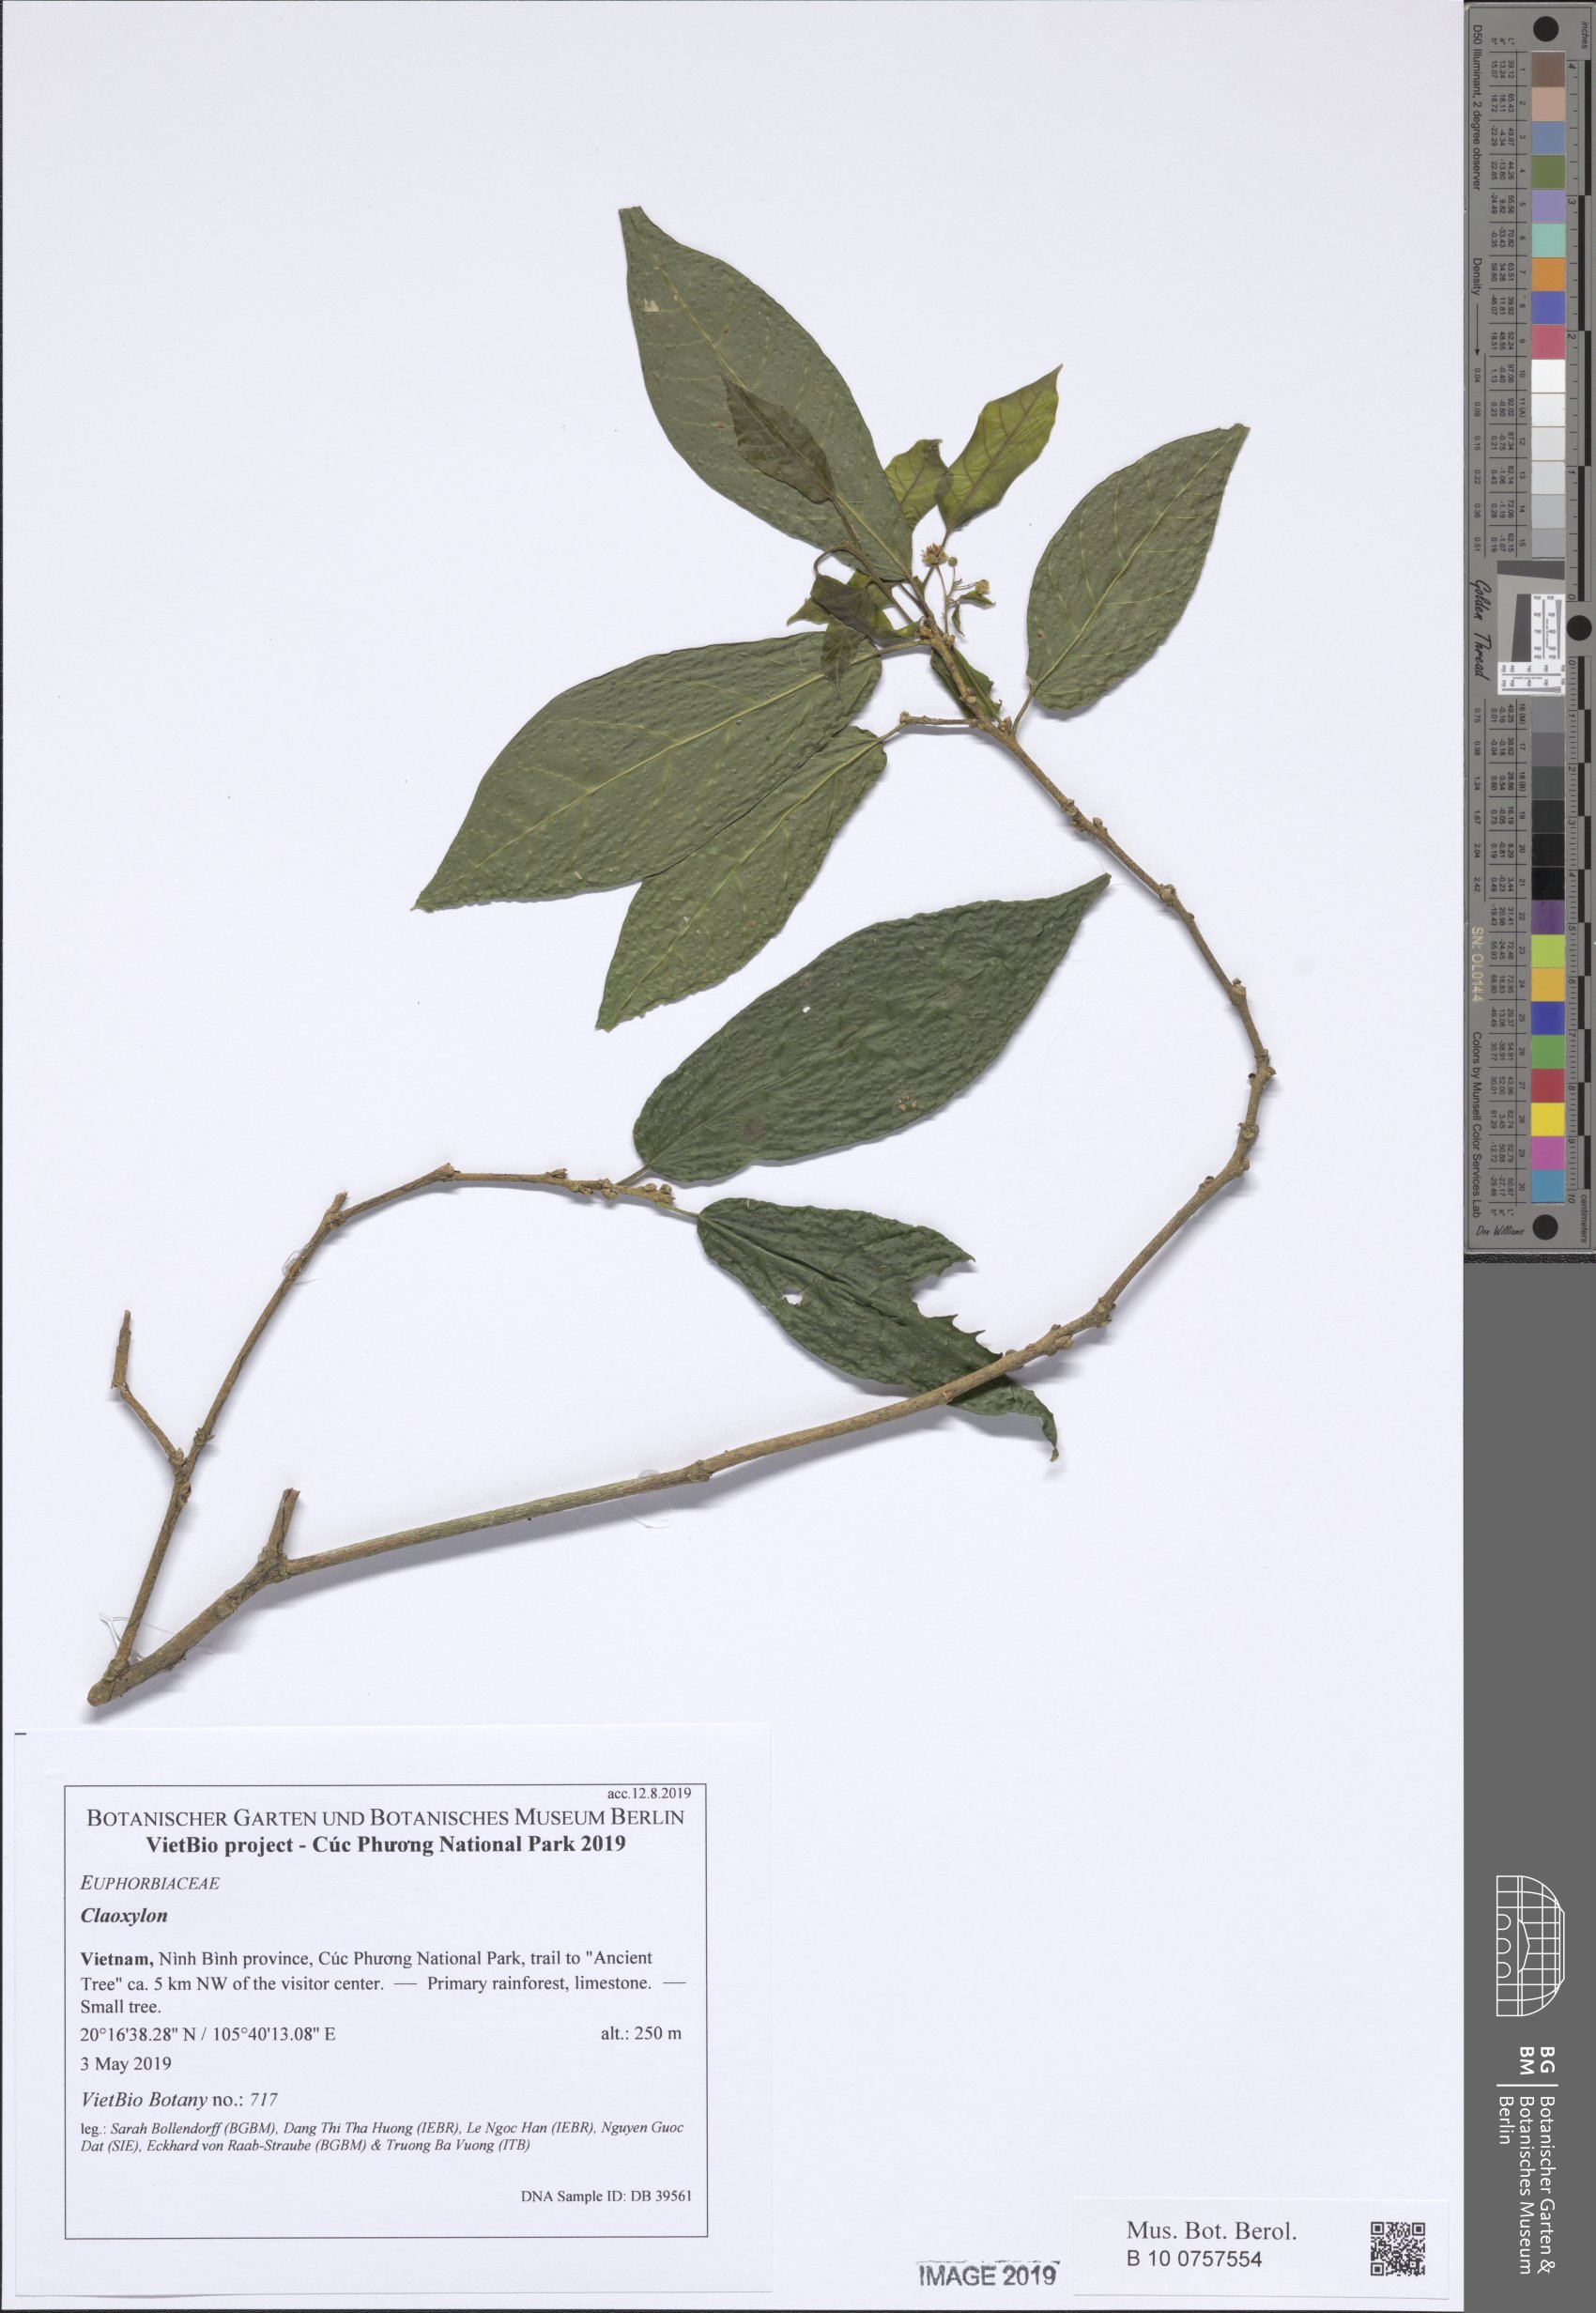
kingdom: Plantae
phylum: Tracheophyta
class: Magnoliopsida
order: Malpighiales
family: Euphorbiaceae
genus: Mallotus
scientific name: Mallotus
